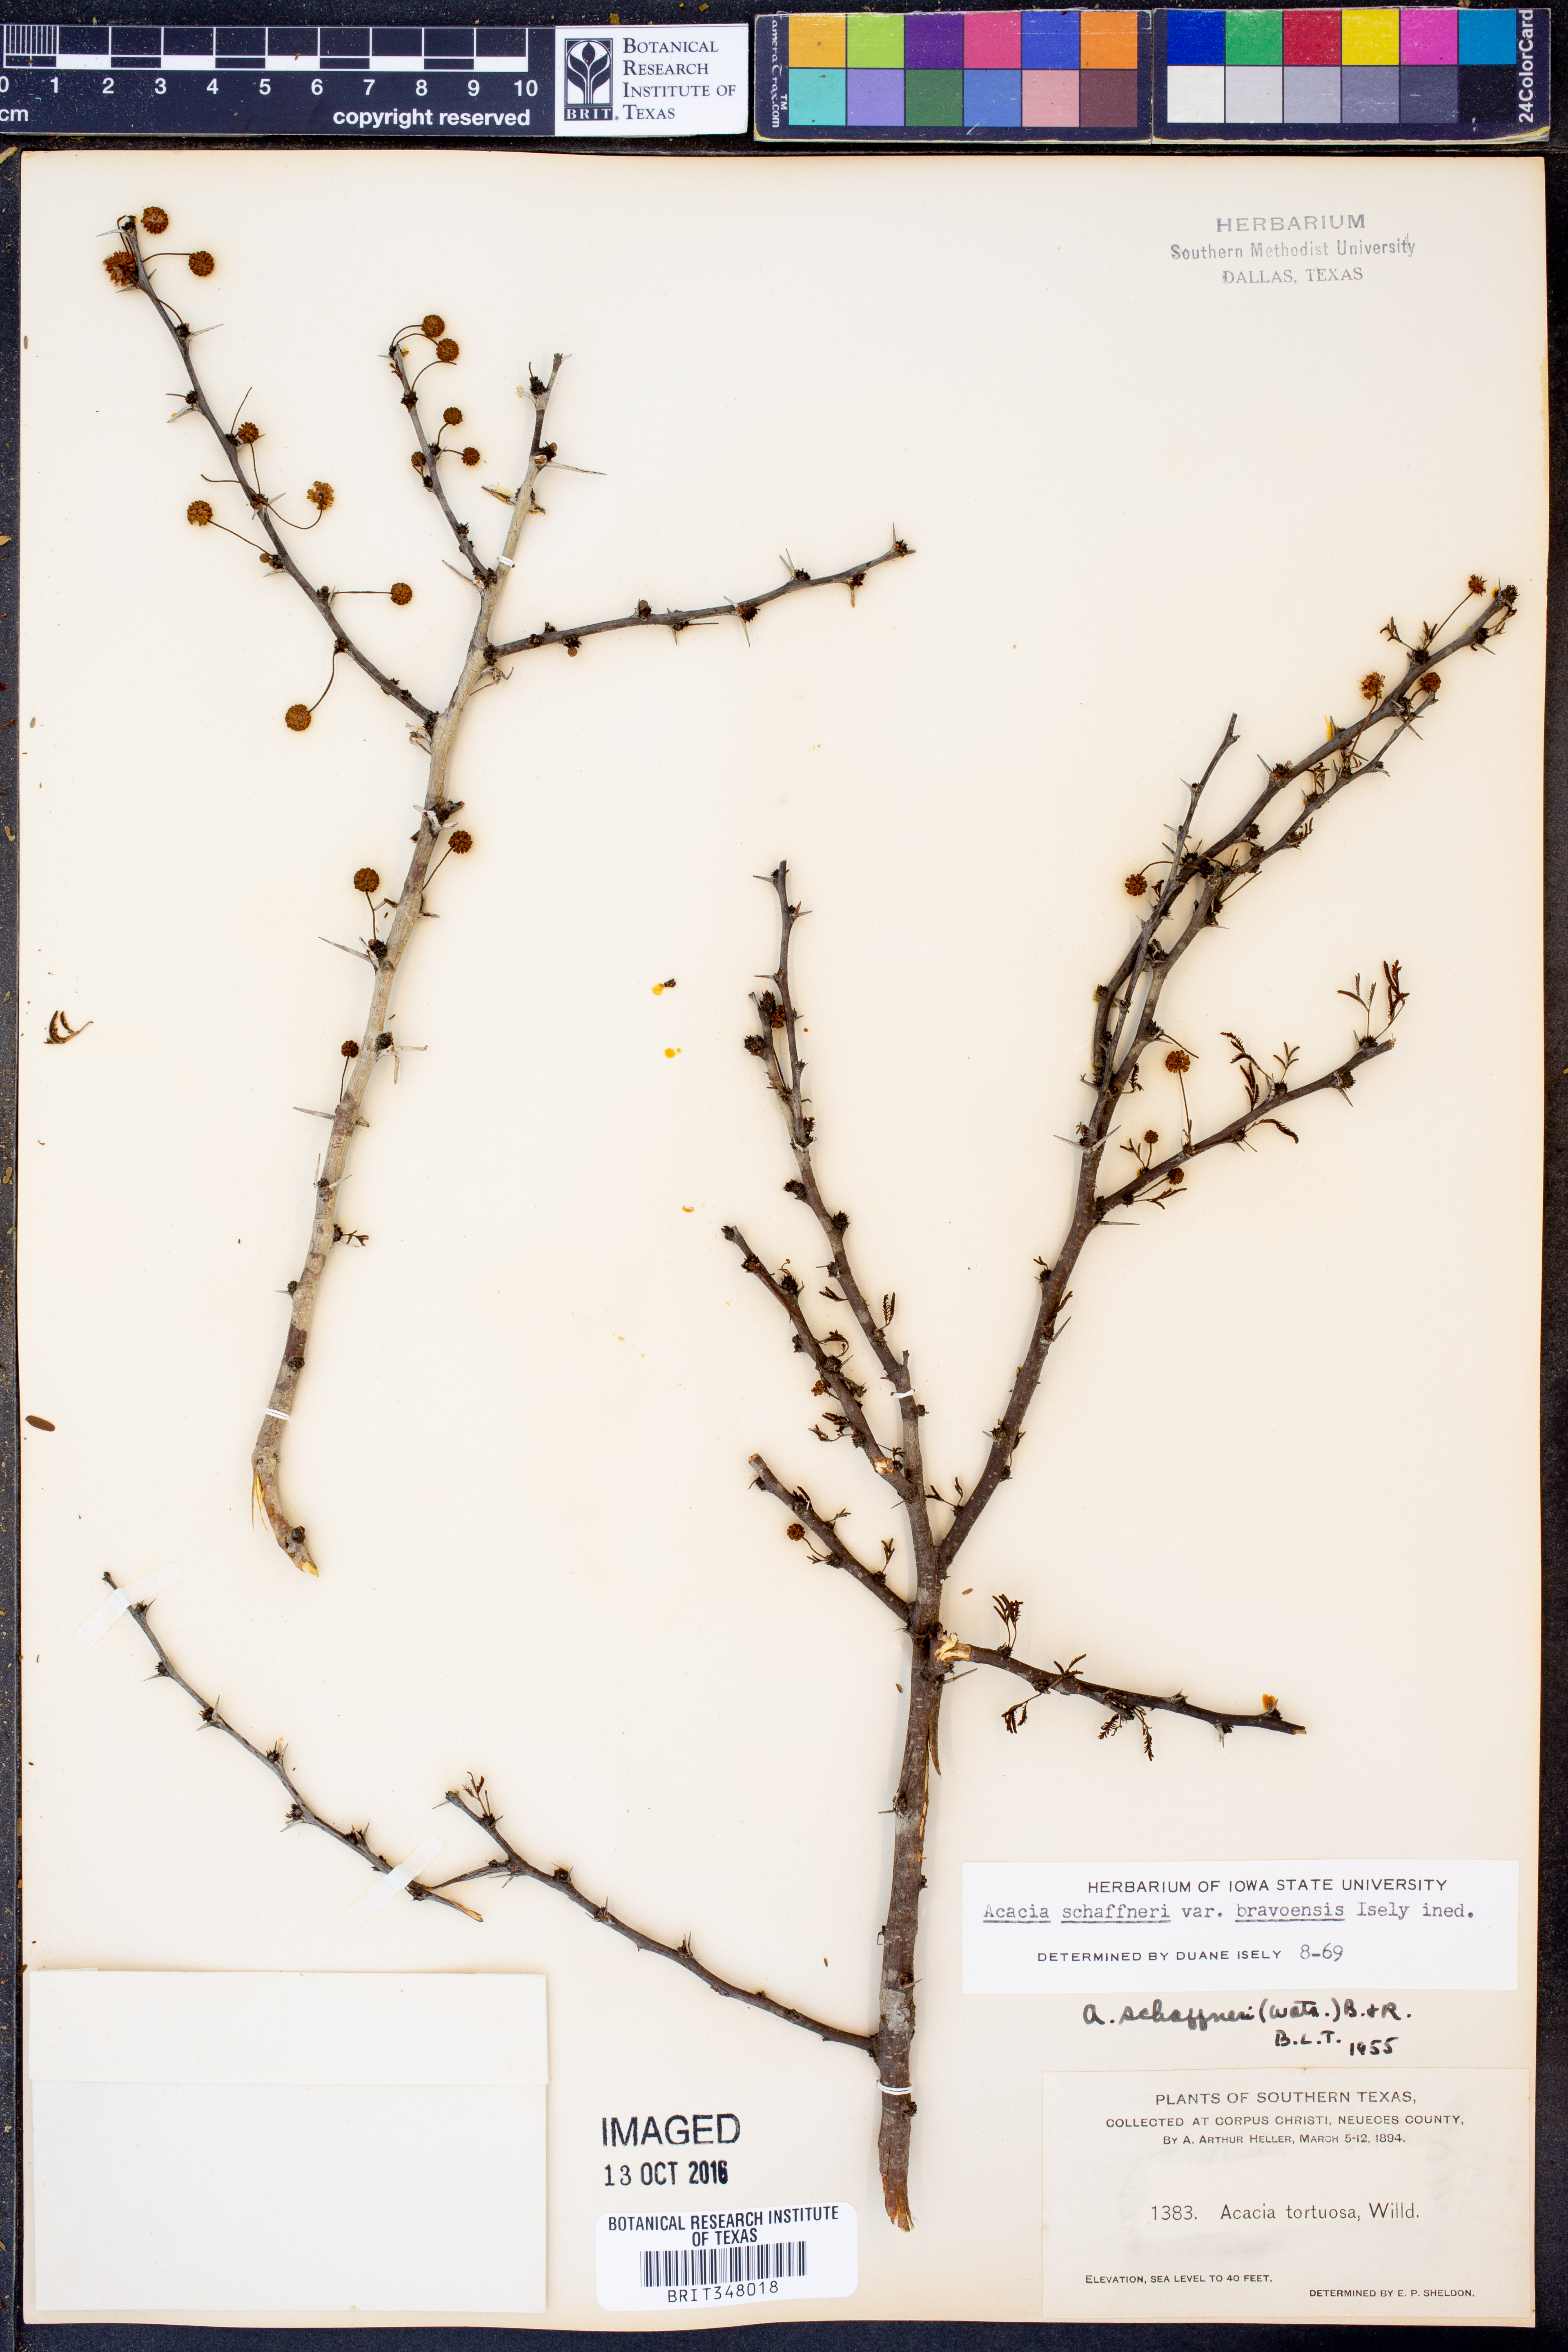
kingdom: Plantae
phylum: Tracheophyta
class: Magnoliopsida
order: Fabales
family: Fabaceae
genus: Vachellia
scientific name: Vachellia bravoensis
